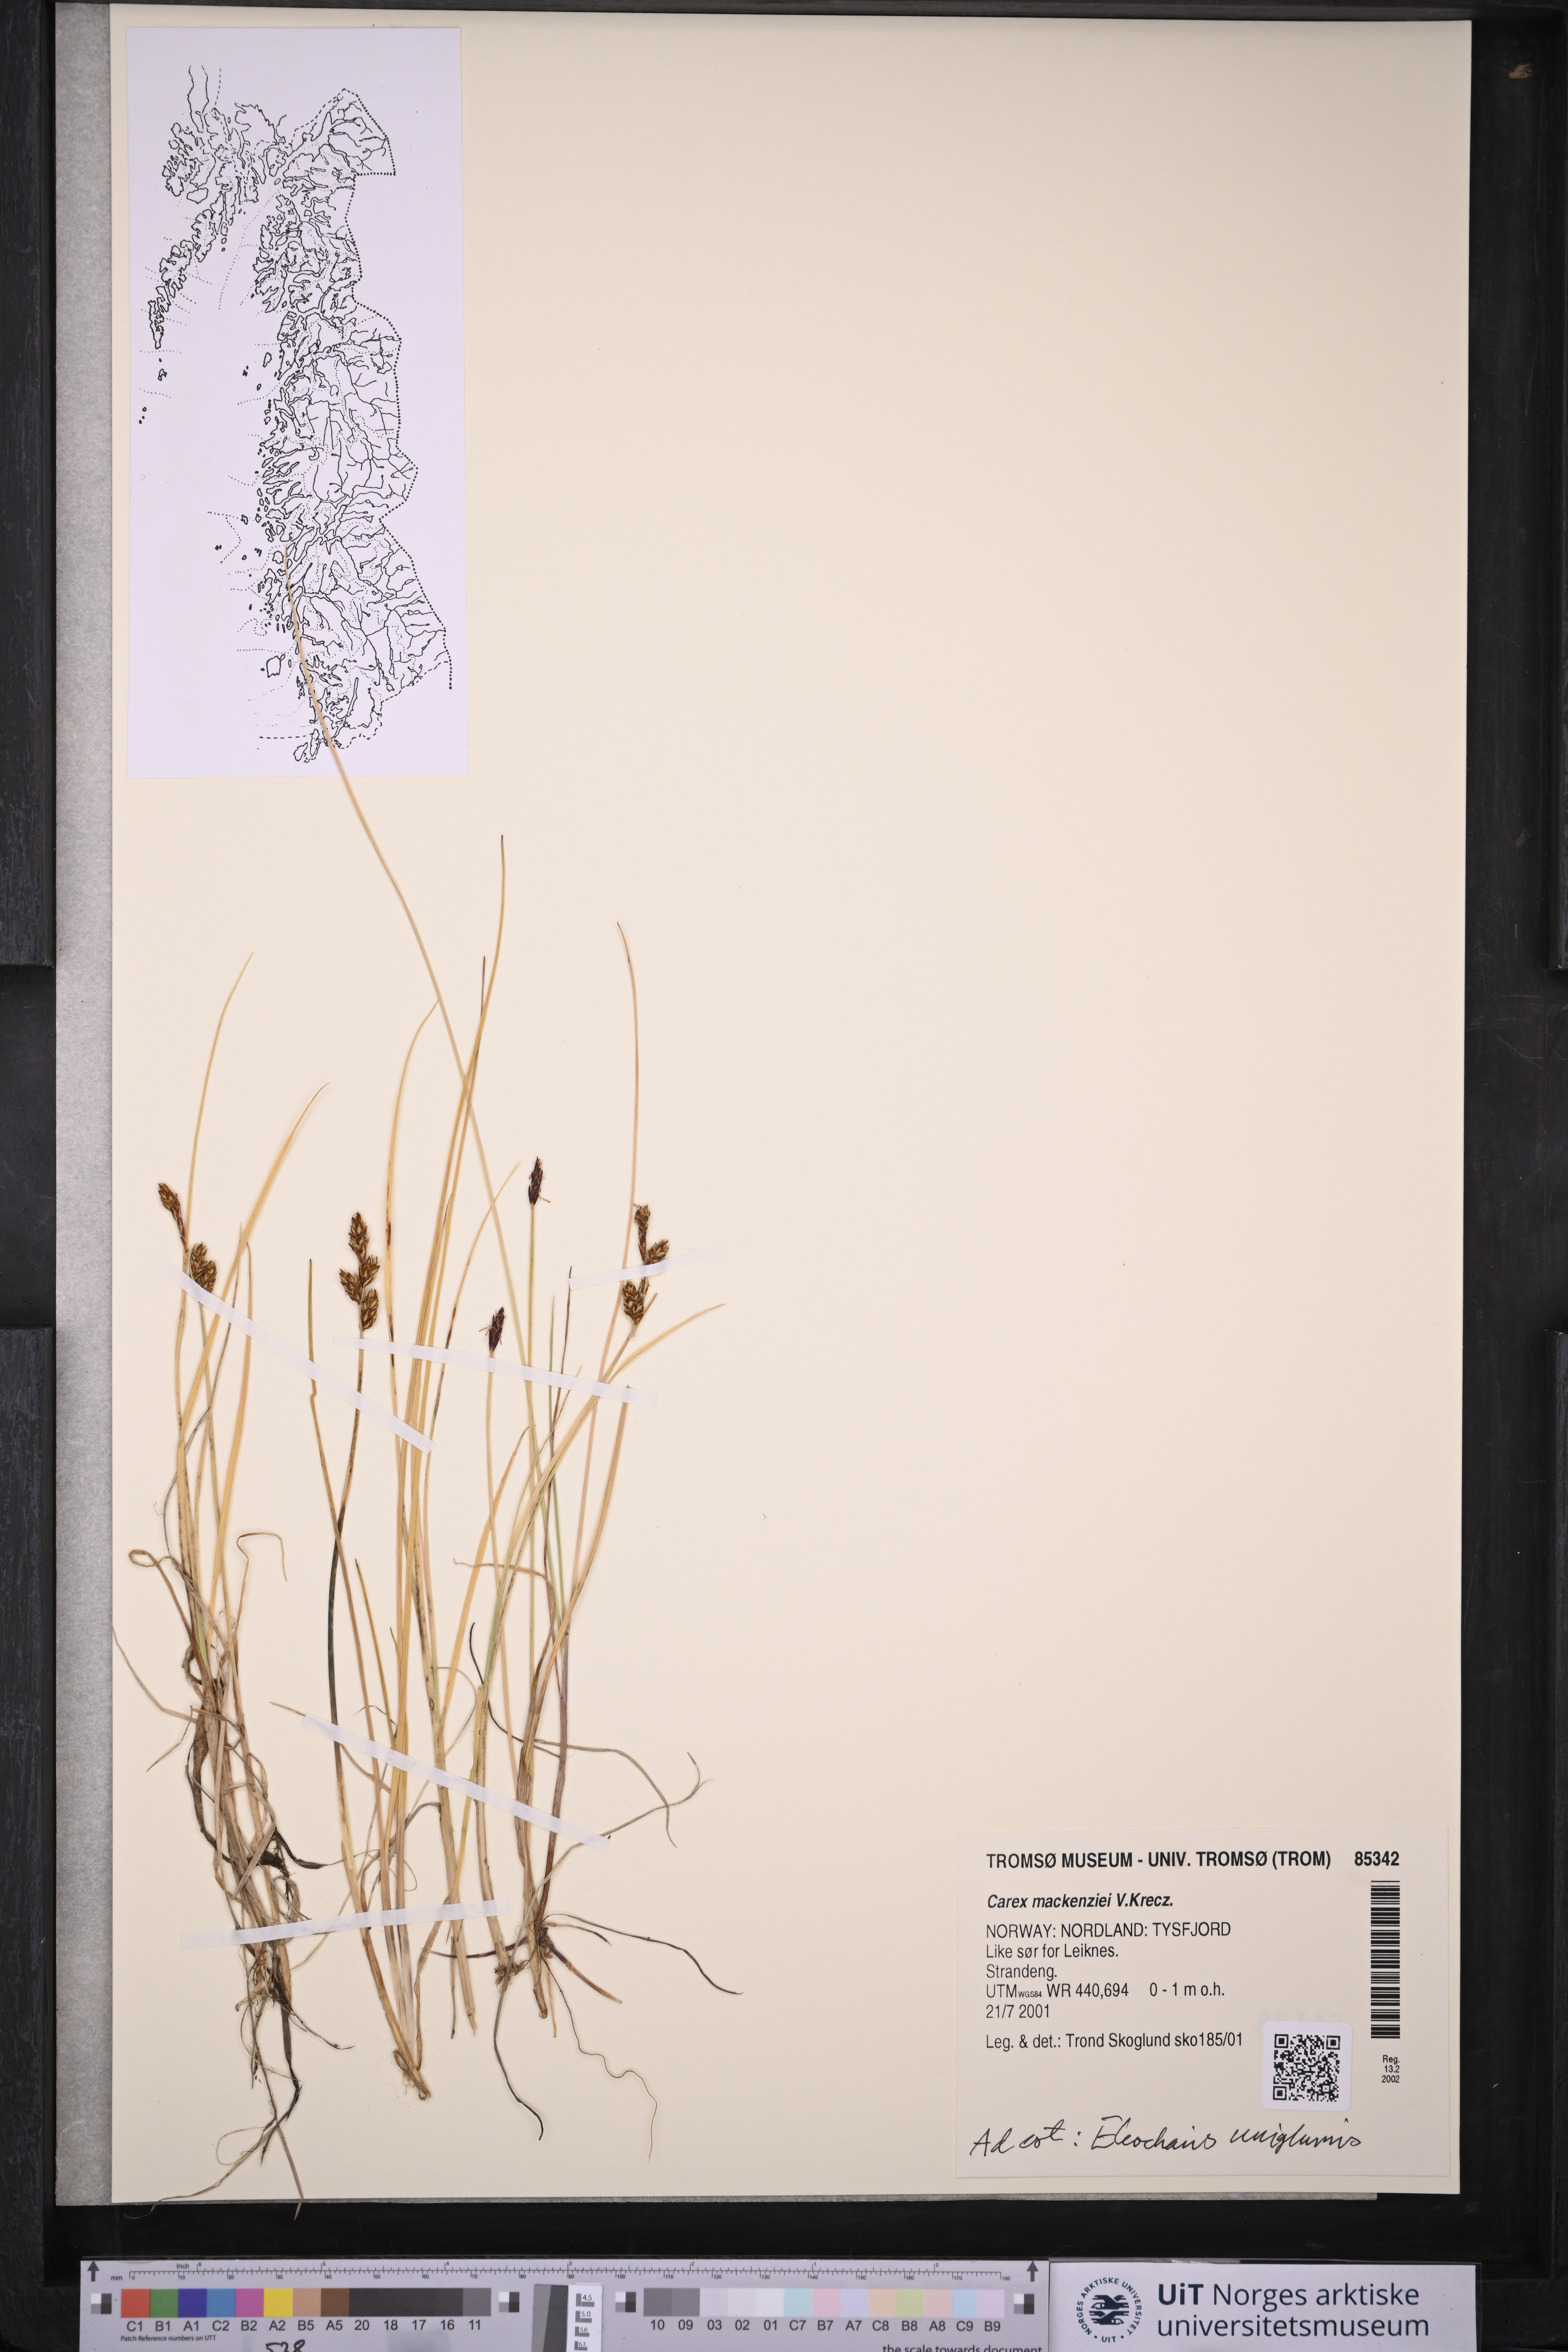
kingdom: Plantae
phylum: Tracheophyta
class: Liliopsida
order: Poales
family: Cyperaceae
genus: Carex
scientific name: Carex mackenziei
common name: Mackenzie's sedge
